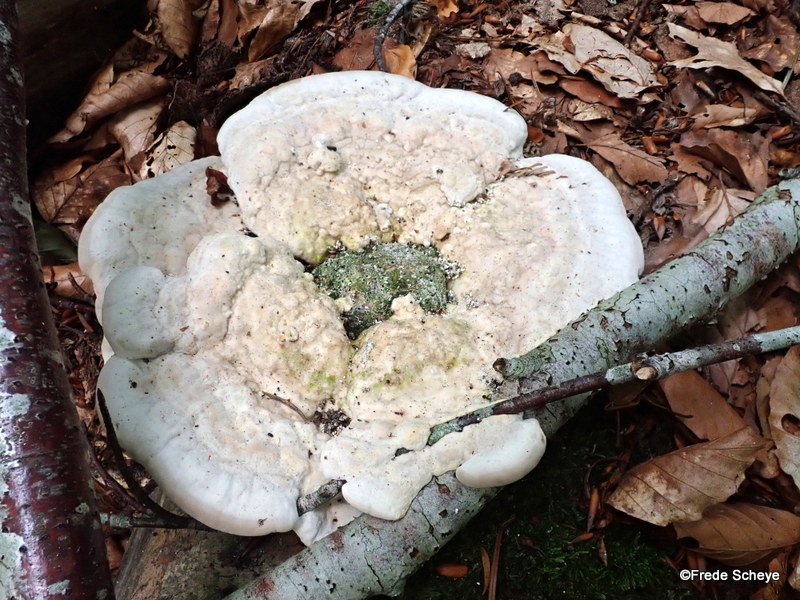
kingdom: Fungi
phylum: Basidiomycota
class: Agaricomycetes
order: Polyporales
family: Polyporaceae
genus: Trametes
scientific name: Trametes gibbosa
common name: puklet læderporesvamp
